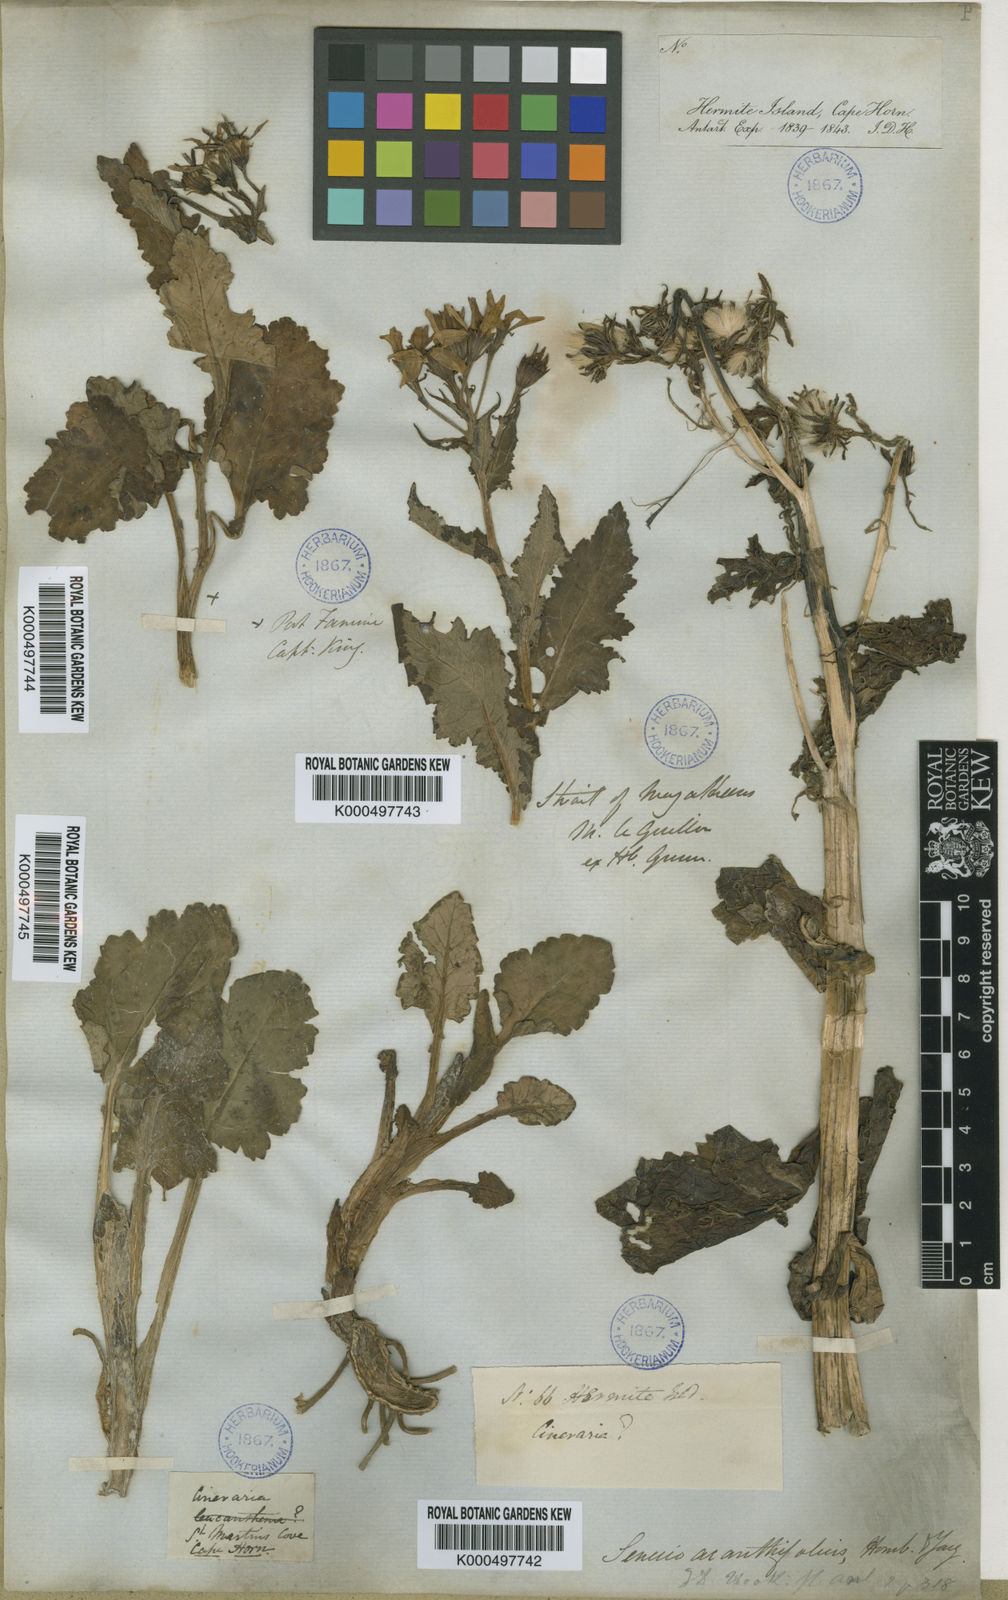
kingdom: Plantae
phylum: Tracheophyta
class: Magnoliopsida
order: Asterales
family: Asteraceae
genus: Iocenes
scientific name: Iocenes virens
